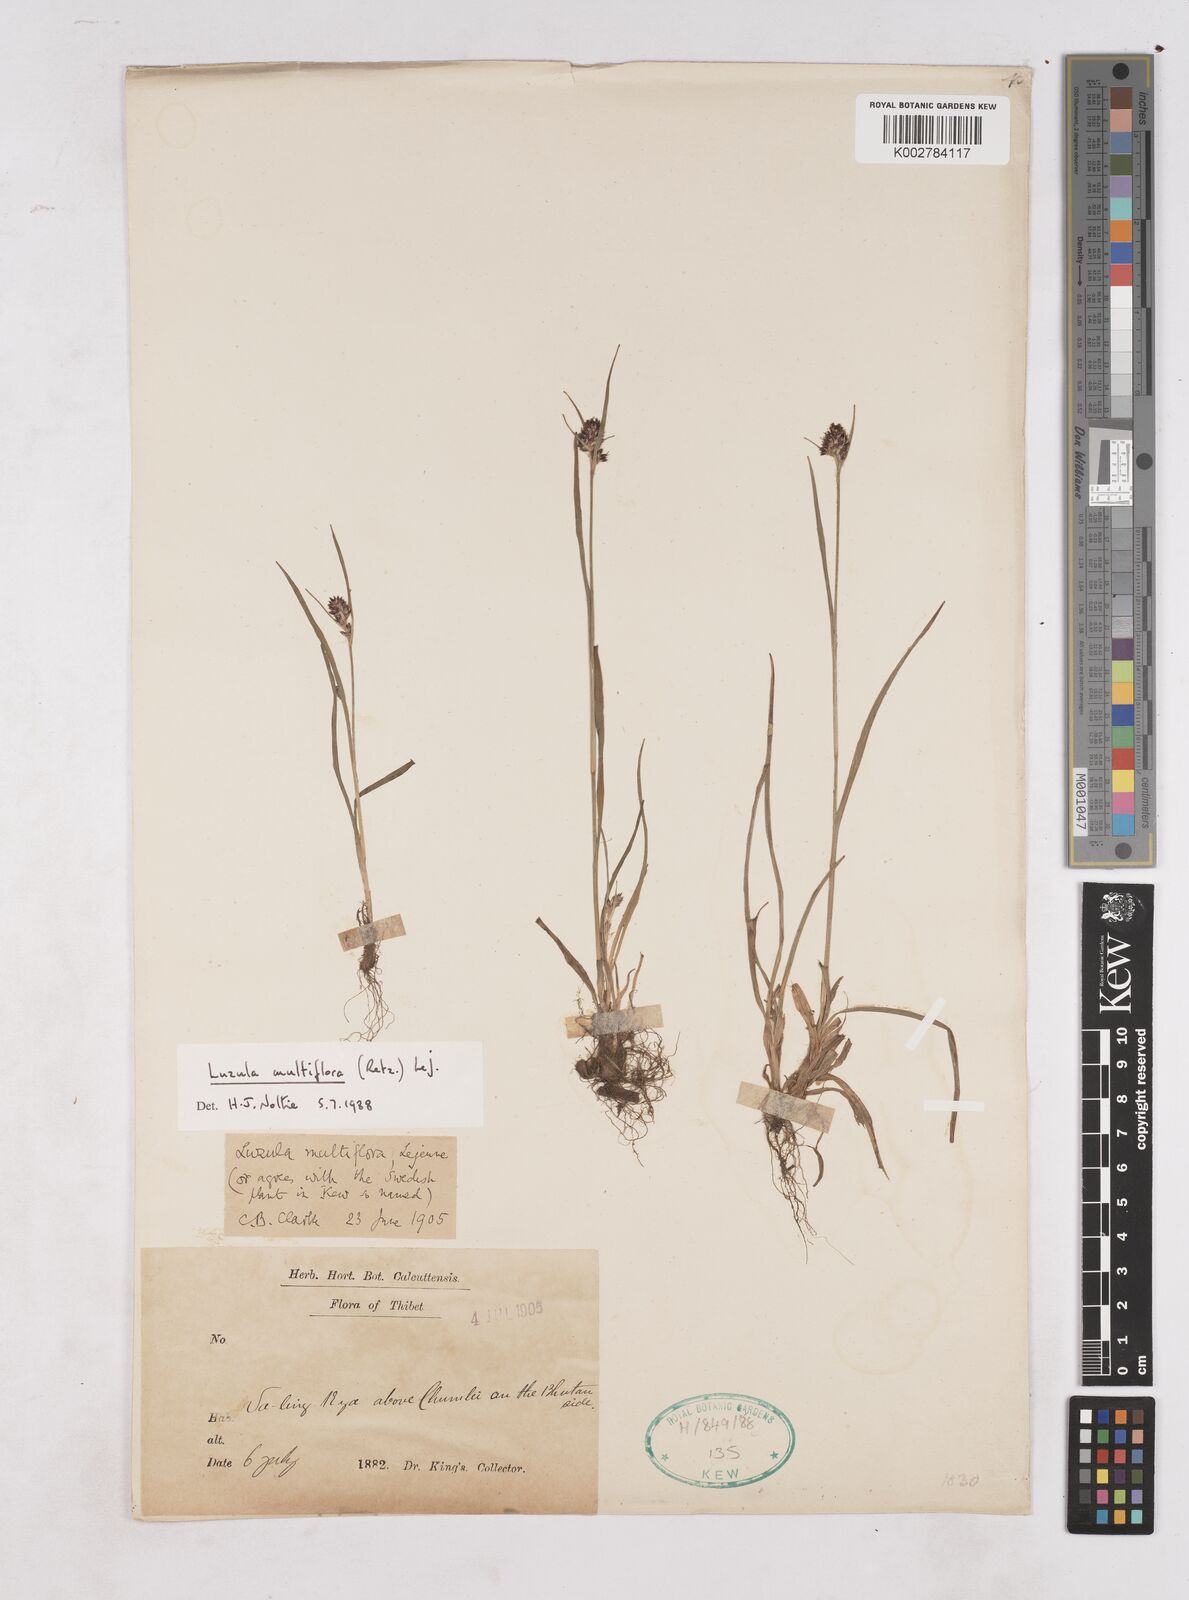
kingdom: Plantae
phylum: Tracheophyta
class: Liliopsida
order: Poales
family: Juncaceae
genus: Luzula
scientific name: Luzula multiflora
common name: Heath wood-rush
